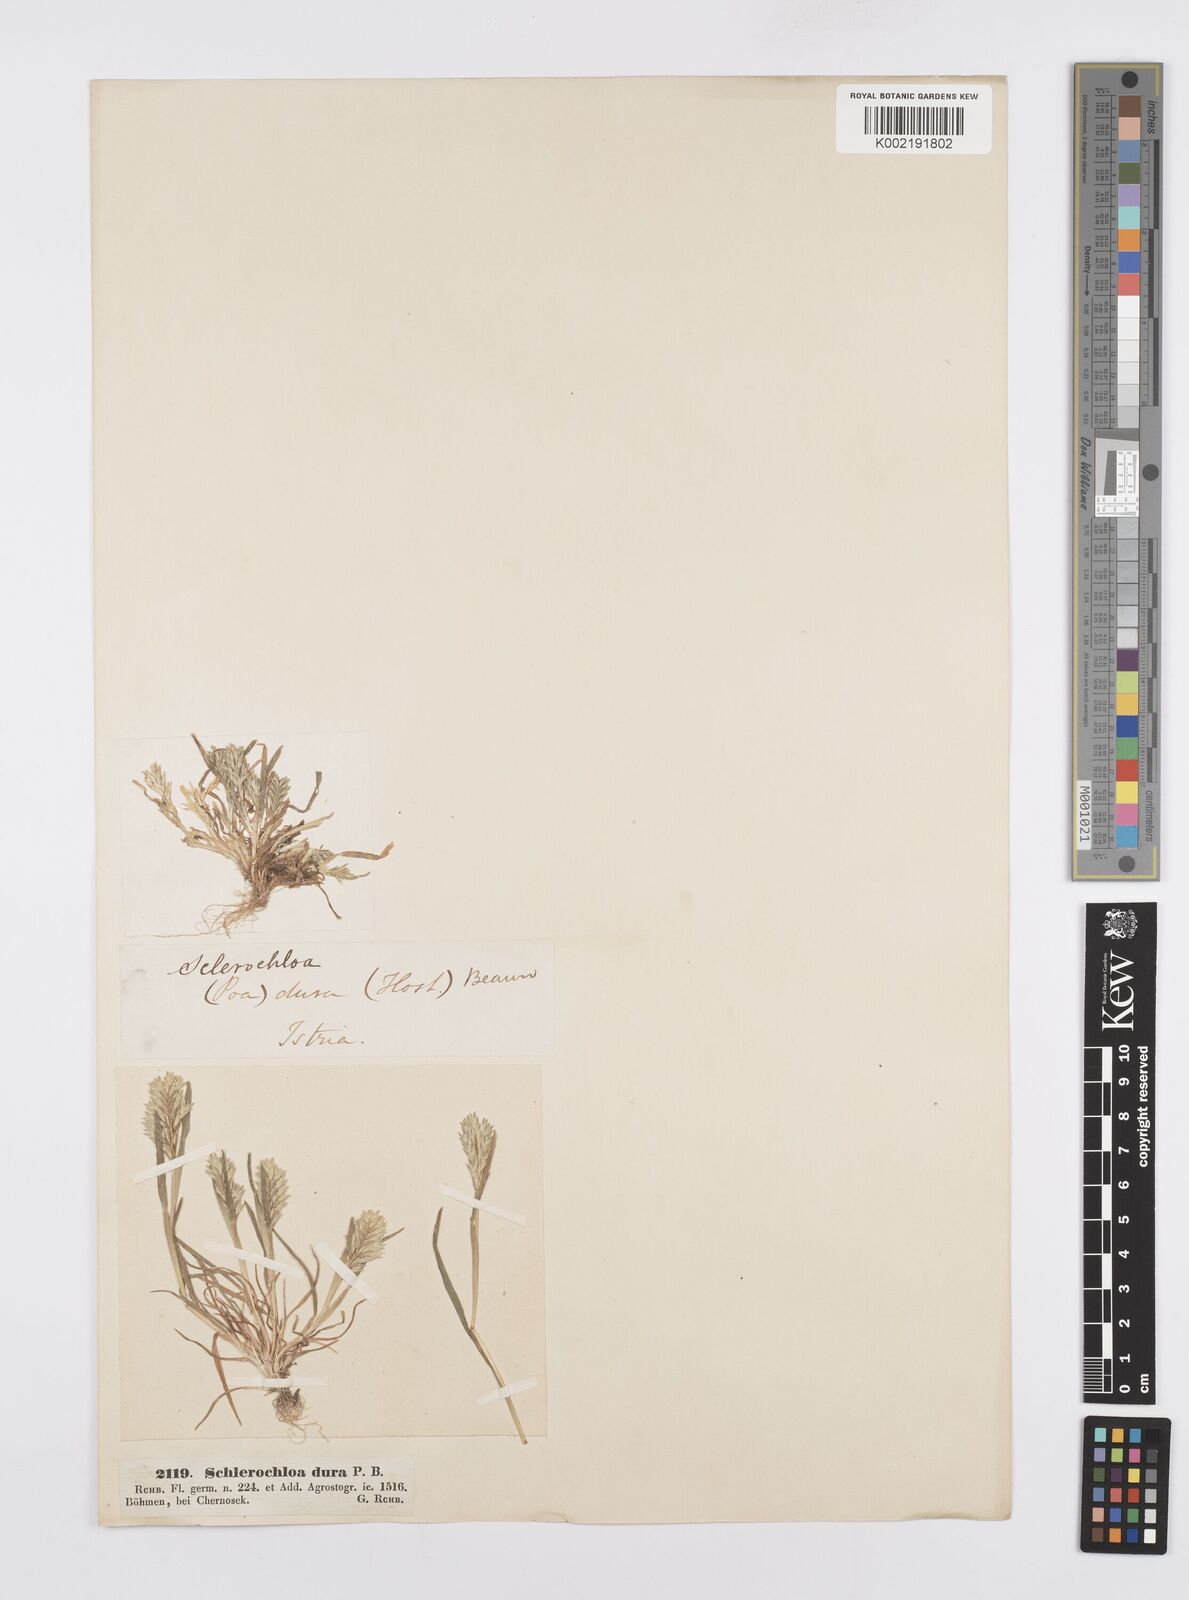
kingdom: Plantae
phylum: Tracheophyta
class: Liliopsida
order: Poales
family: Poaceae
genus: Sclerochloa
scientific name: Sclerochloa dura
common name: Common hardgrass
